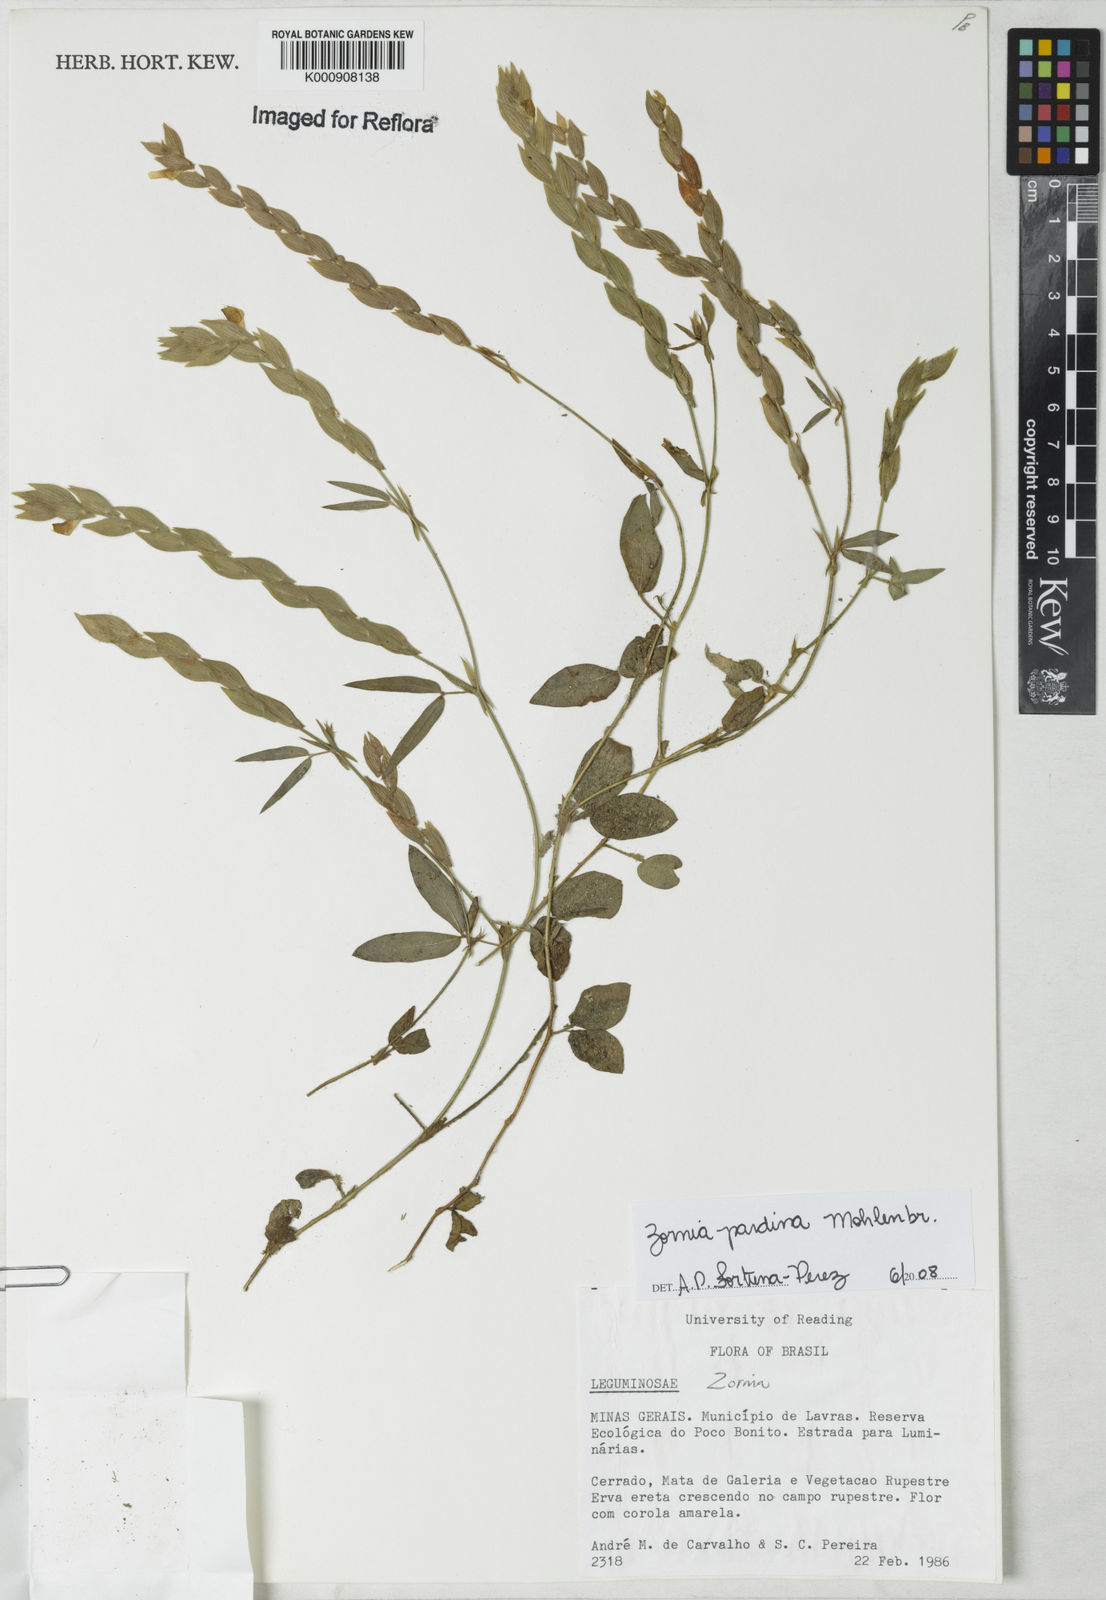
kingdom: Plantae
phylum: Tracheophyta
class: Magnoliopsida
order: Fabales
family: Fabaceae
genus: Zornia
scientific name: Zornia pardina
